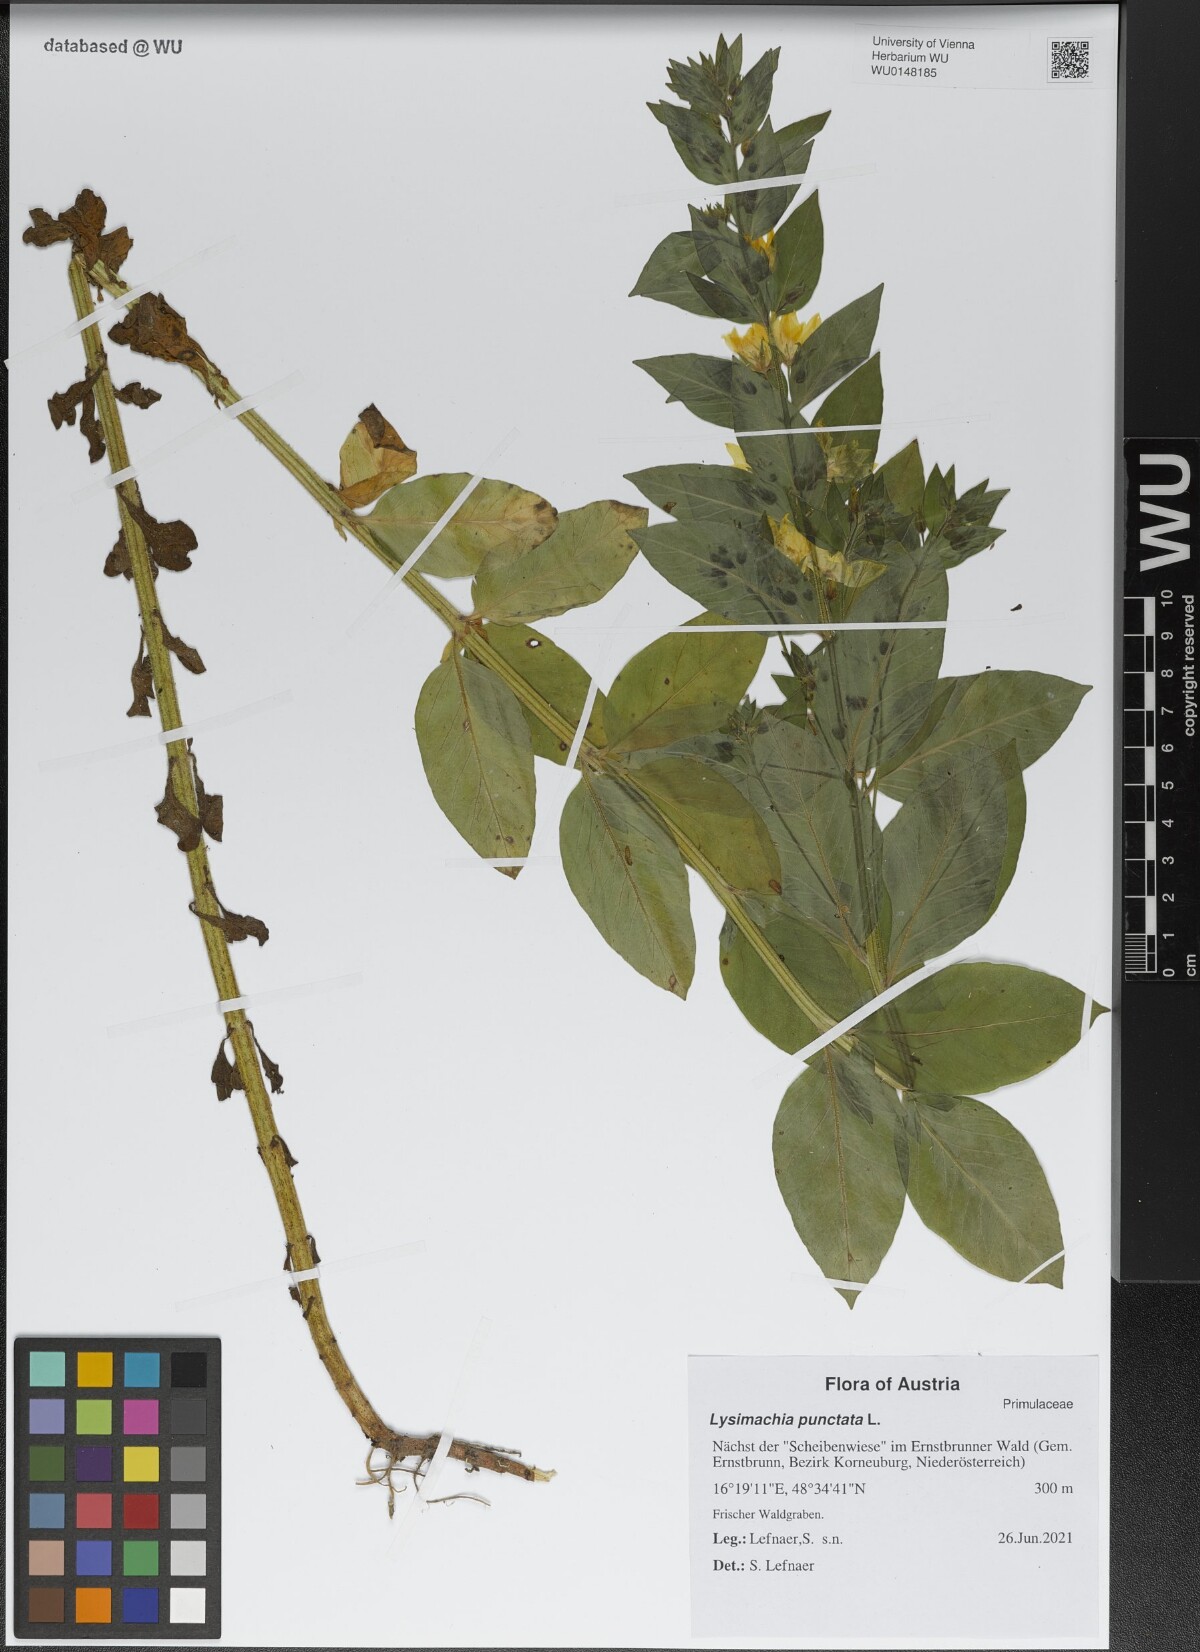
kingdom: Plantae
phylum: Tracheophyta
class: Magnoliopsida
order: Ericales
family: Primulaceae
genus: Lysimachia
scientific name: Lysimachia punctata
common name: Dotted loosestrife
